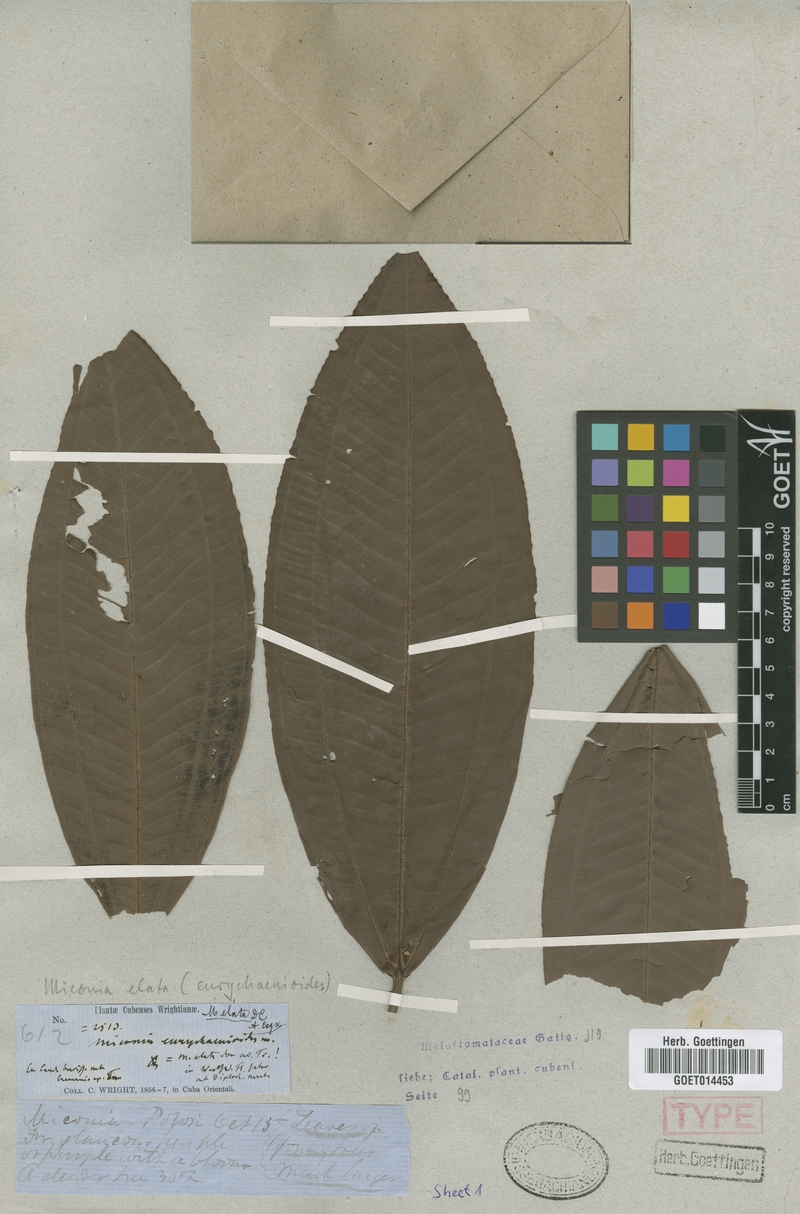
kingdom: Plantae
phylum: Tracheophyta
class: Magnoliopsida
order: Myrtales
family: Melastomataceae
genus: Miconia
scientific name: Miconia elata
